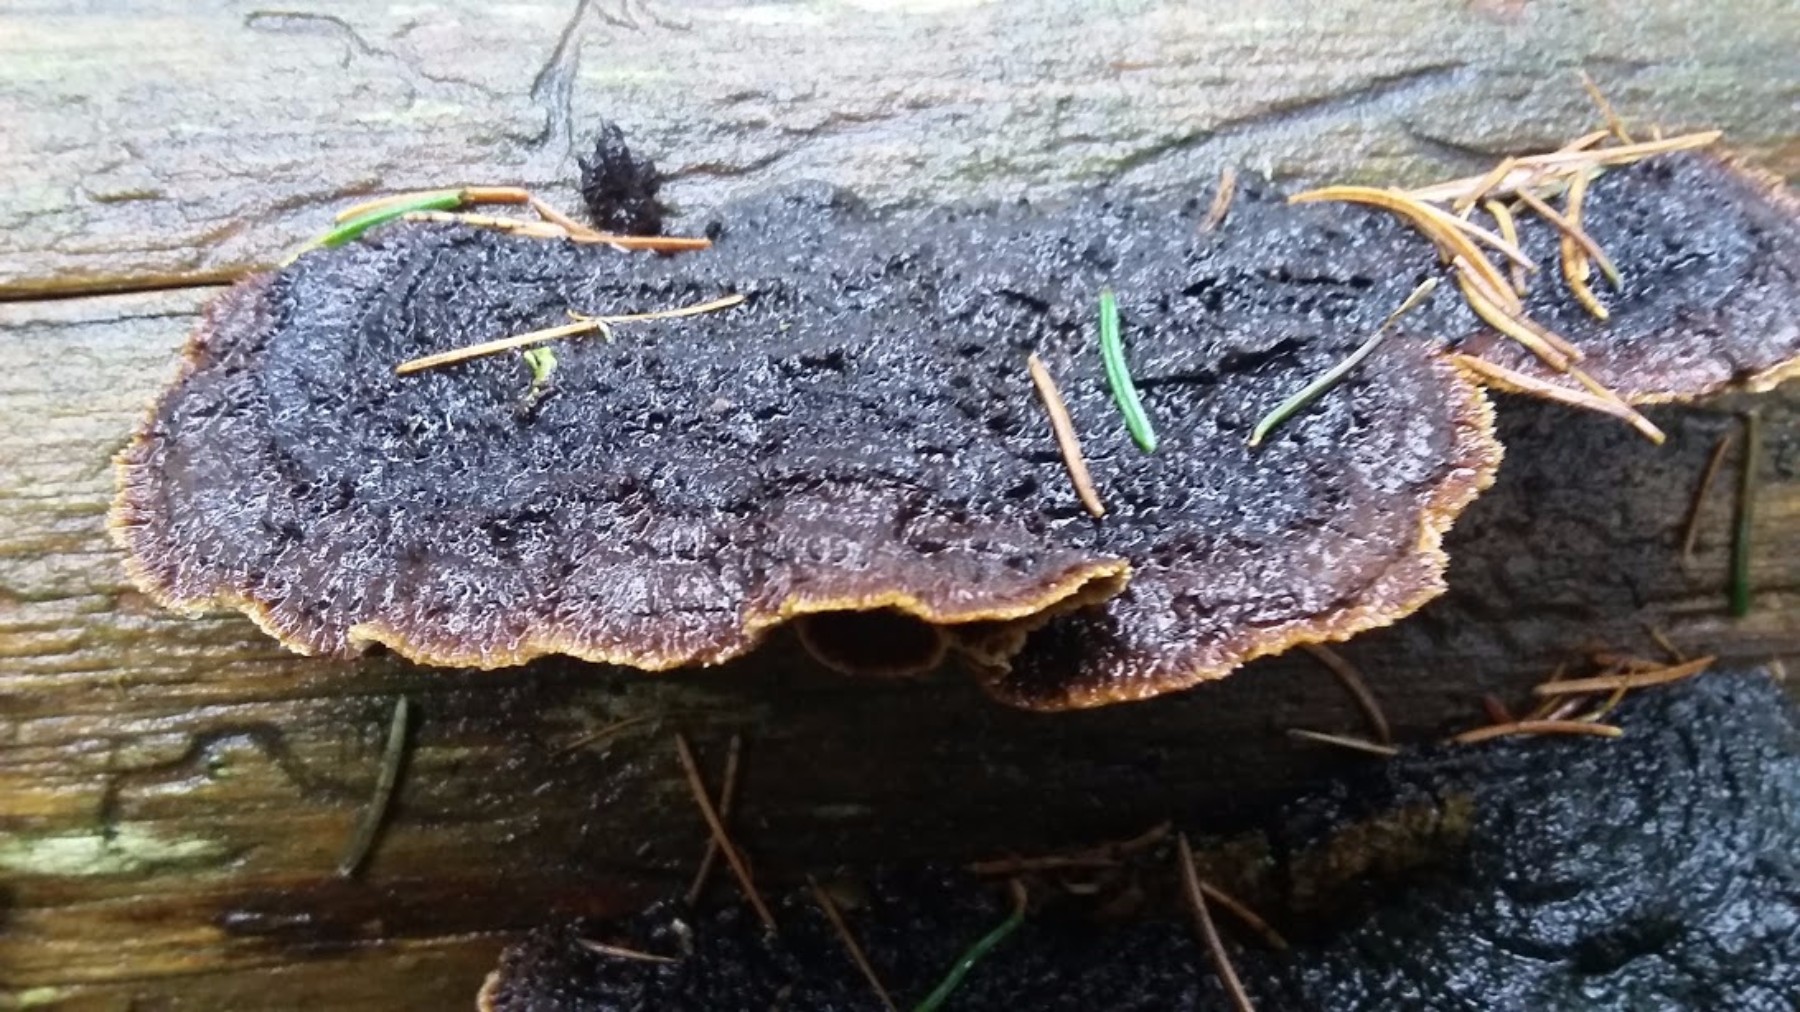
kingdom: Fungi
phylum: Basidiomycota
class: Agaricomycetes
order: Polyporales
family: Ischnodermataceae
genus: Ischnoderma
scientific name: Ischnoderma benzoinum
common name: gran-tjæreporesvamp
